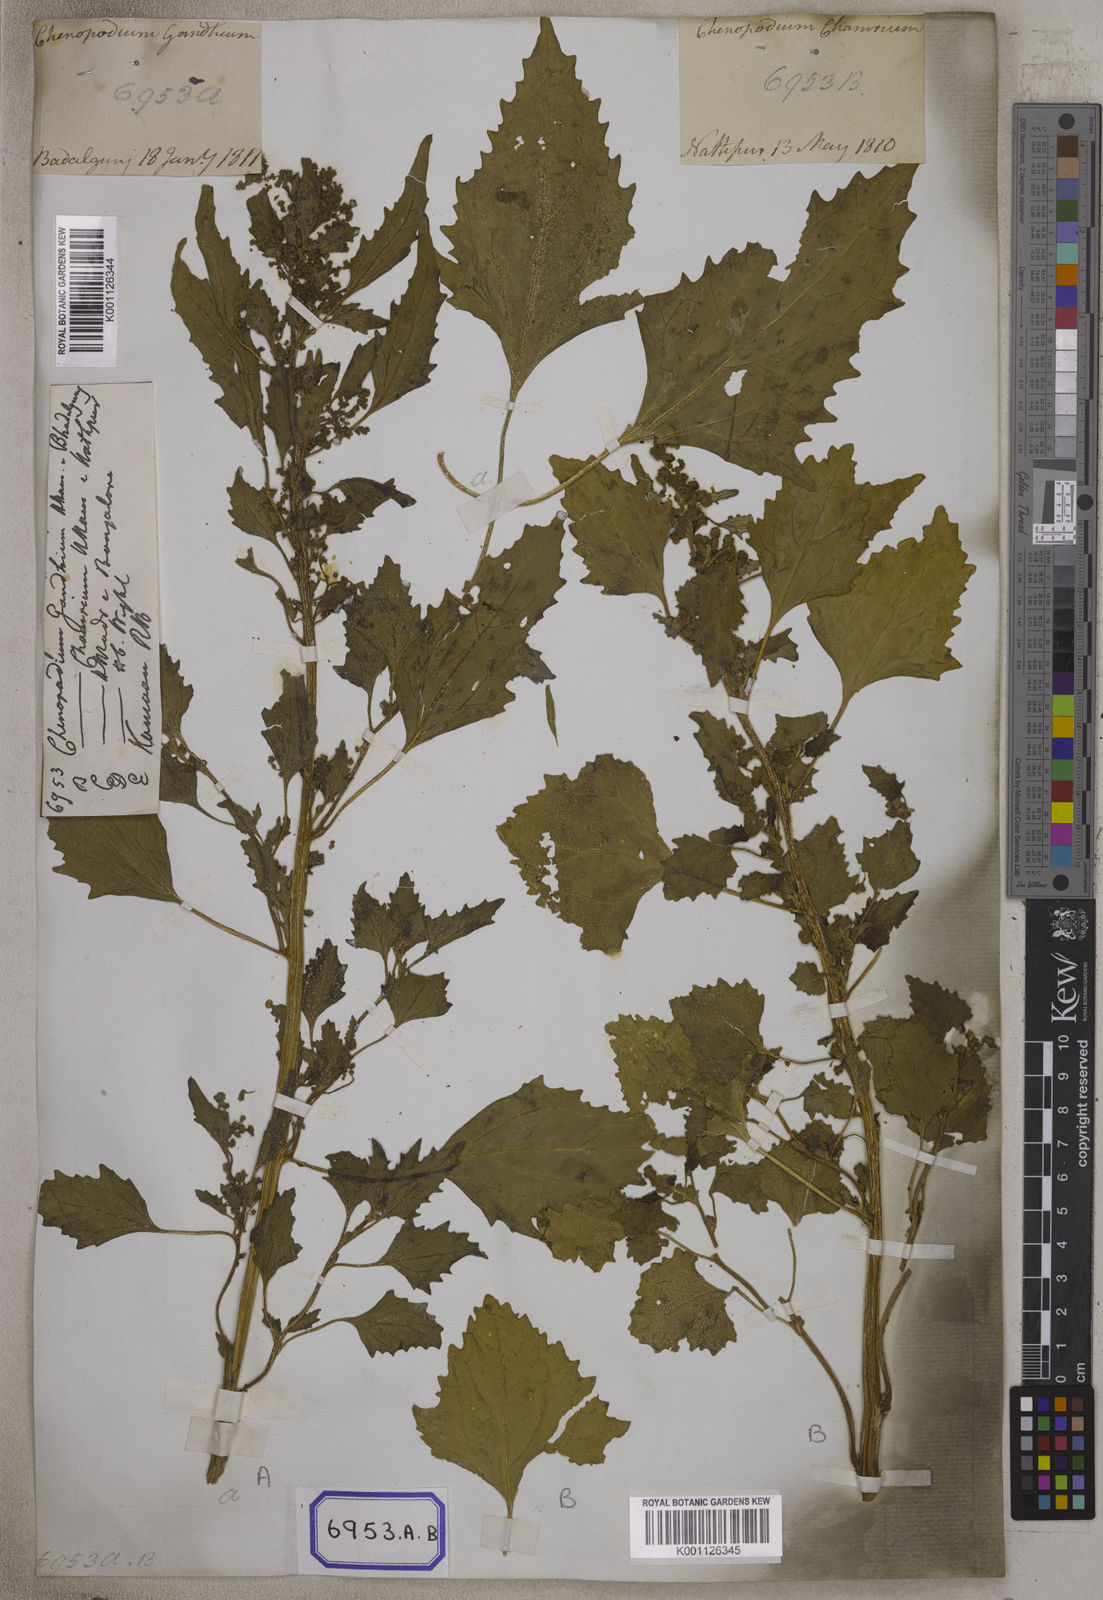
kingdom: Plantae
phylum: Tracheophyta
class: Magnoliopsida
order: Caryophyllales
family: Amaranthaceae
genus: Chenopodiastrum
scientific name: Chenopodiastrum murale
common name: Sowbane
